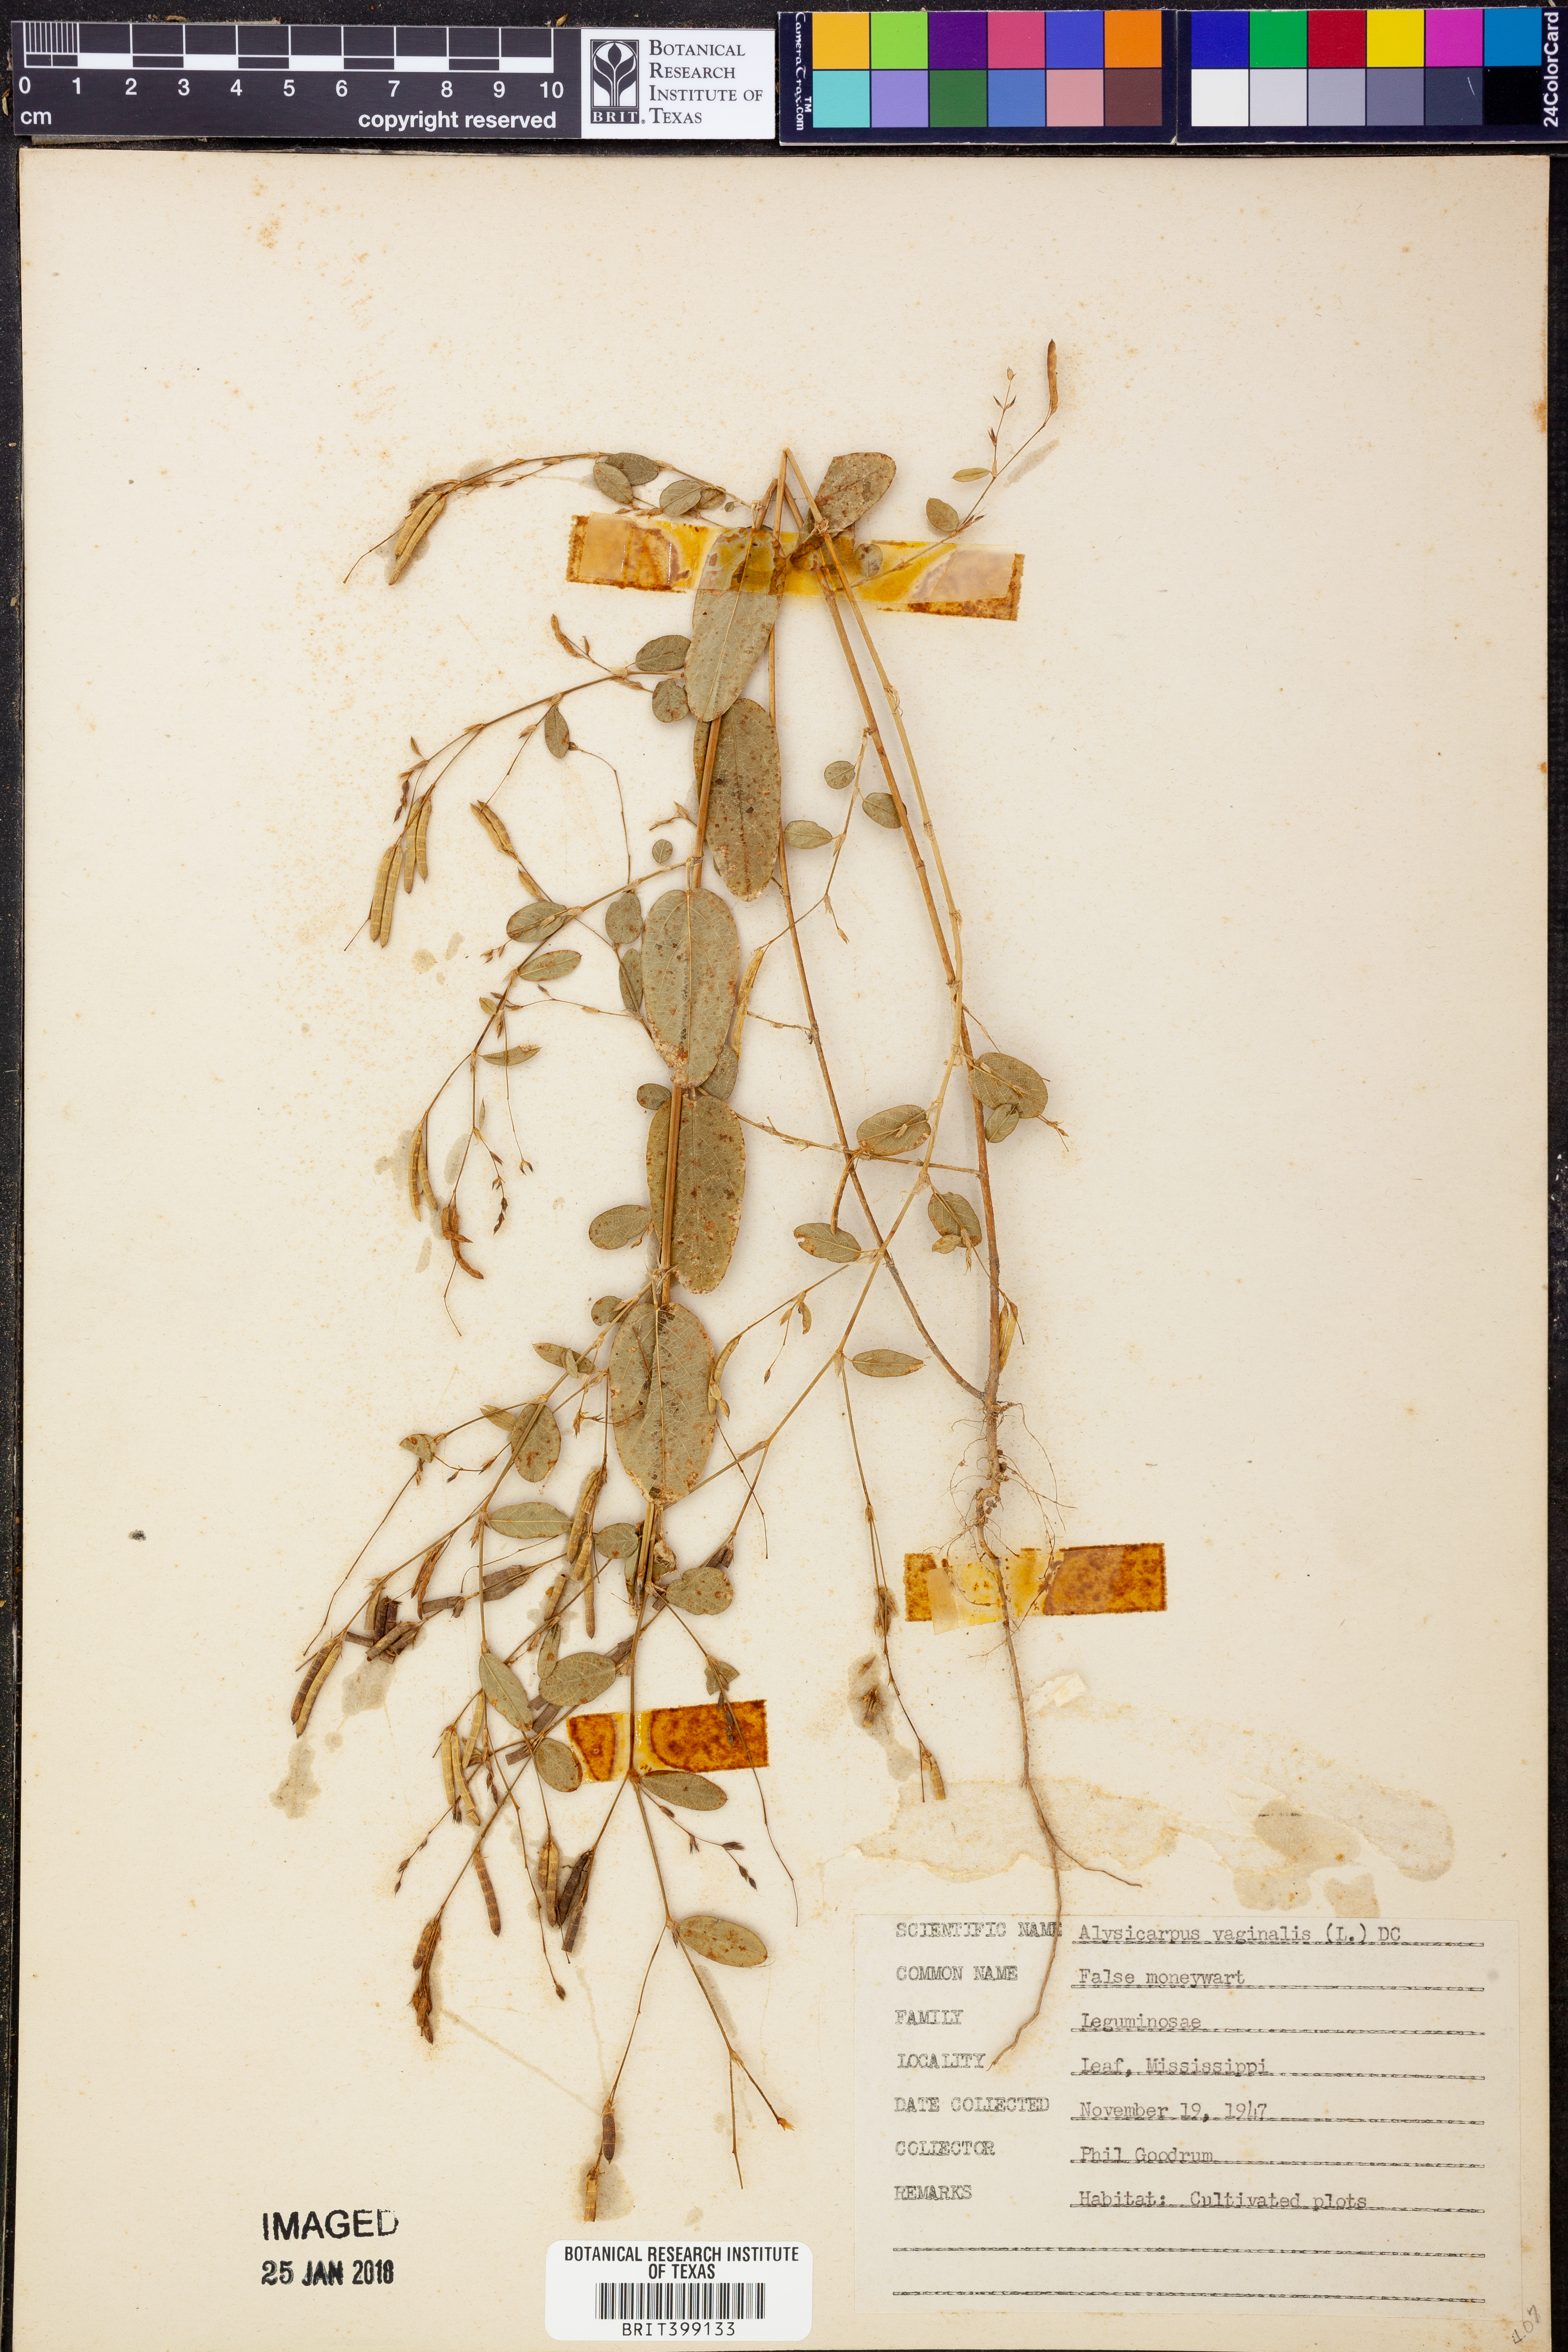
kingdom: Plantae
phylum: Tracheophyta
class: Magnoliopsida
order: Fabales
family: Fabaceae
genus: Alysicarpus
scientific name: Alysicarpus vaginalis
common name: White moneywort
